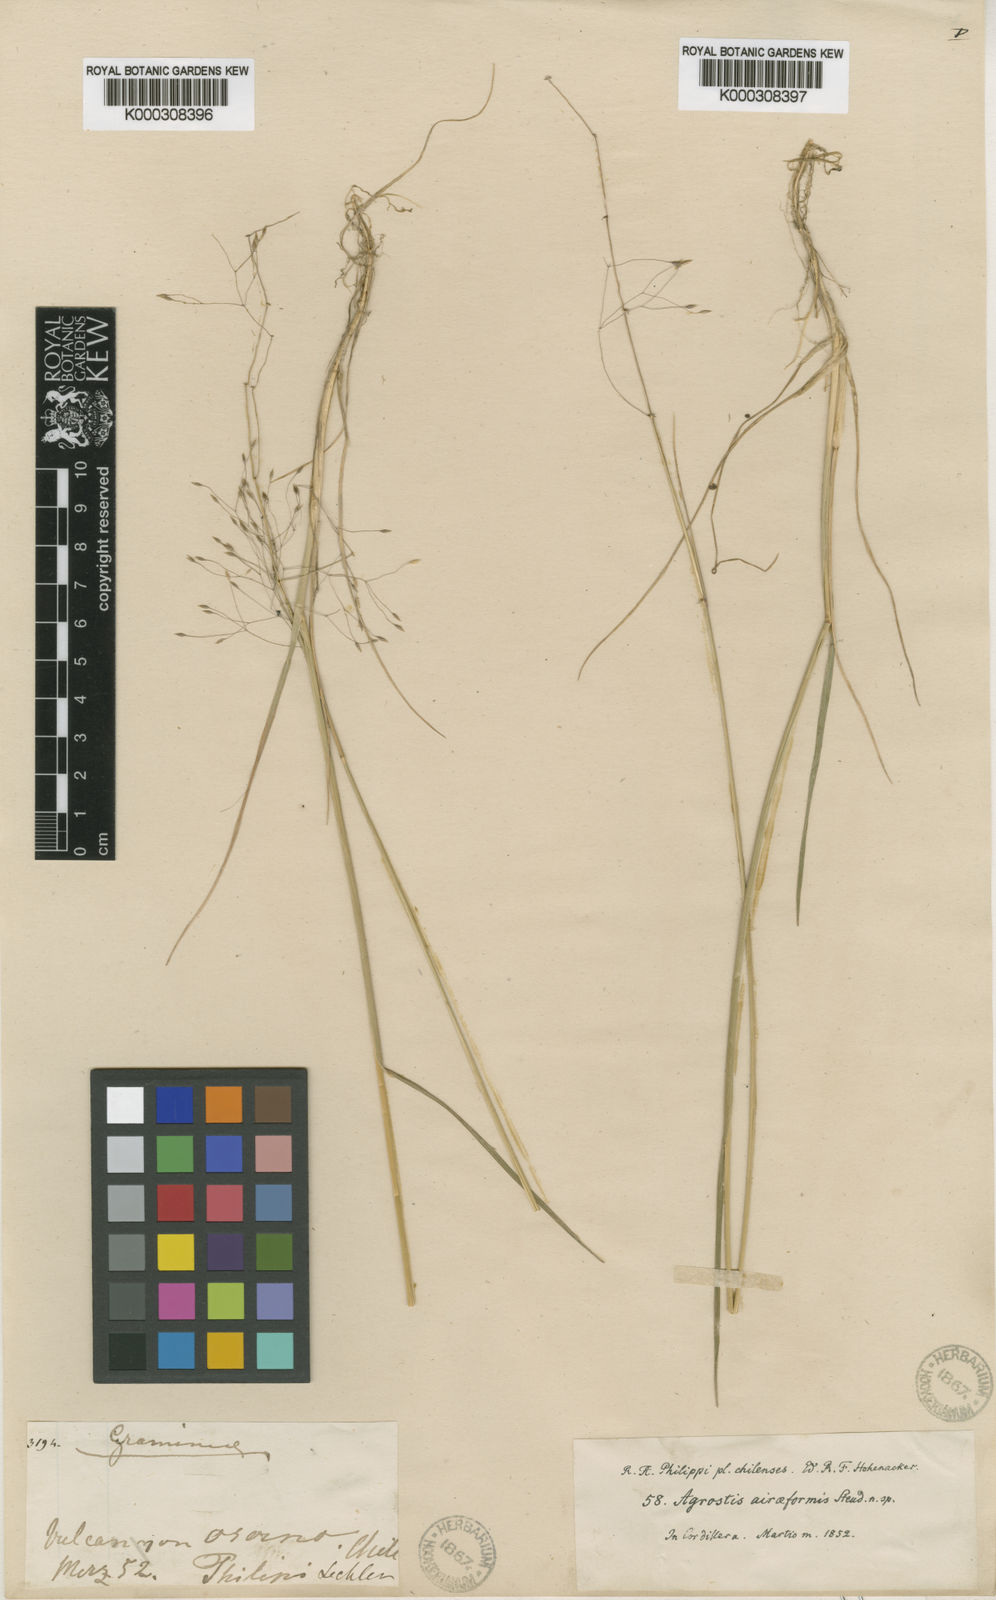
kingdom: Plantae
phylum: Tracheophyta
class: Liliopsida
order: Poales
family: Poaceae
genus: Agrostis
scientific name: Agrostis inconspicua
